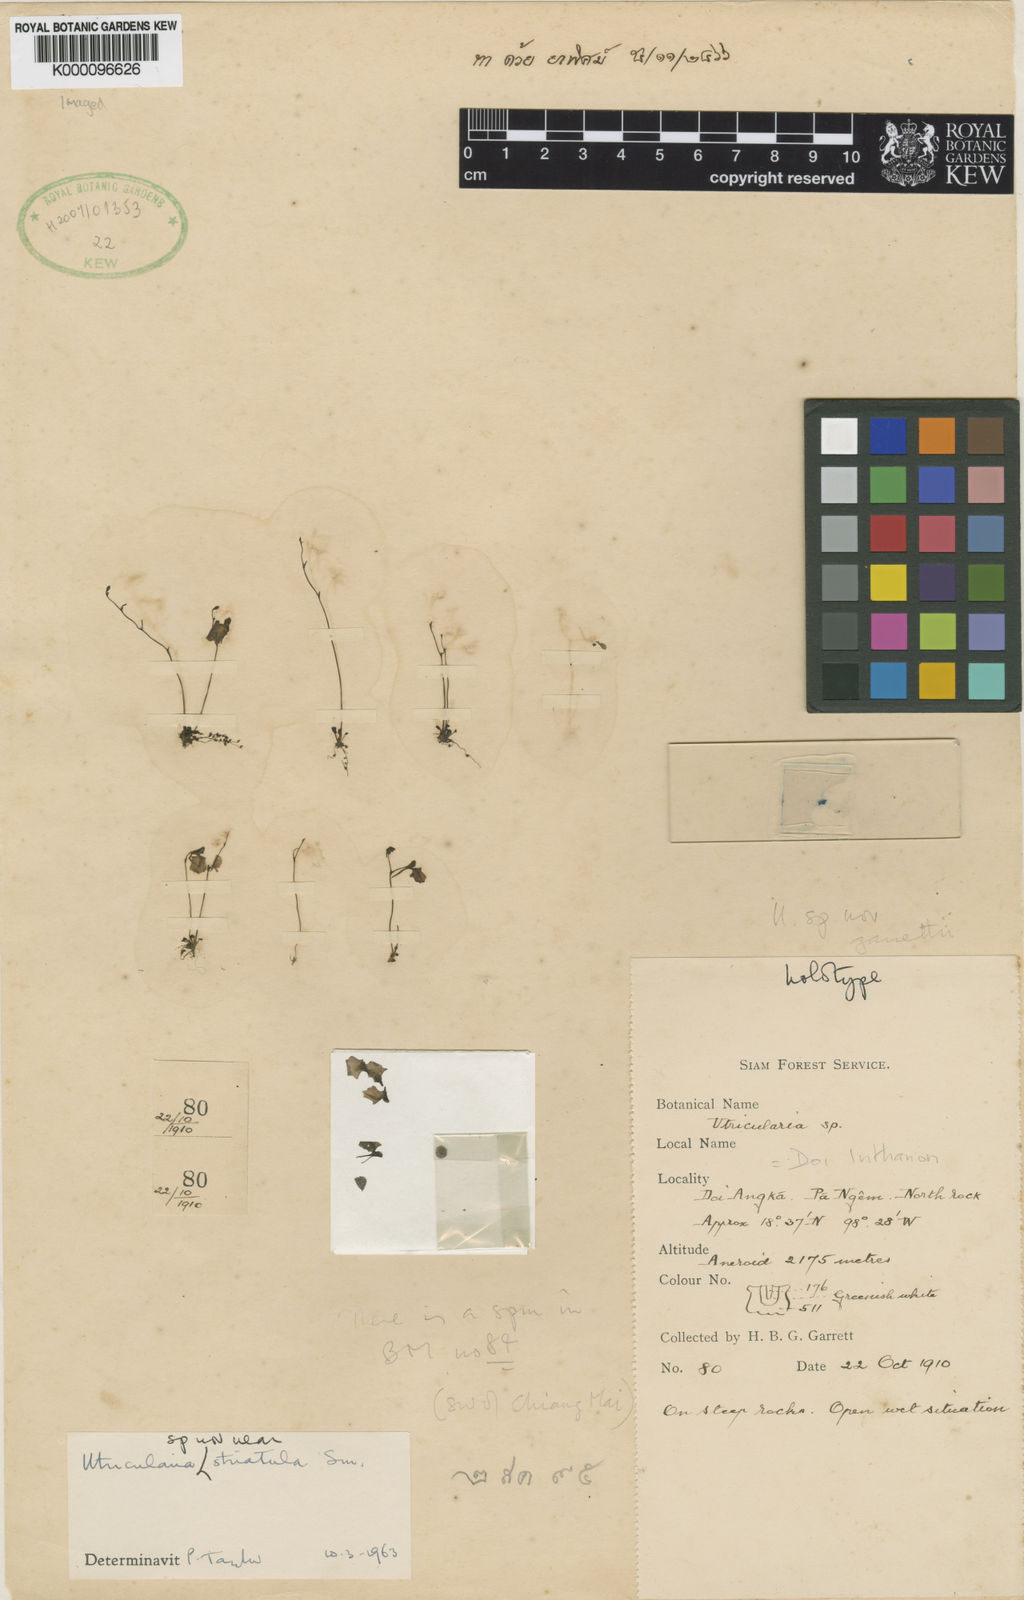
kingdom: Plantae
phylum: Tracheophyta
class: Magnoliopsida
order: Lamiales
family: Lentibulariaceae
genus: Utricularia
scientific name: Utricularia striatula
